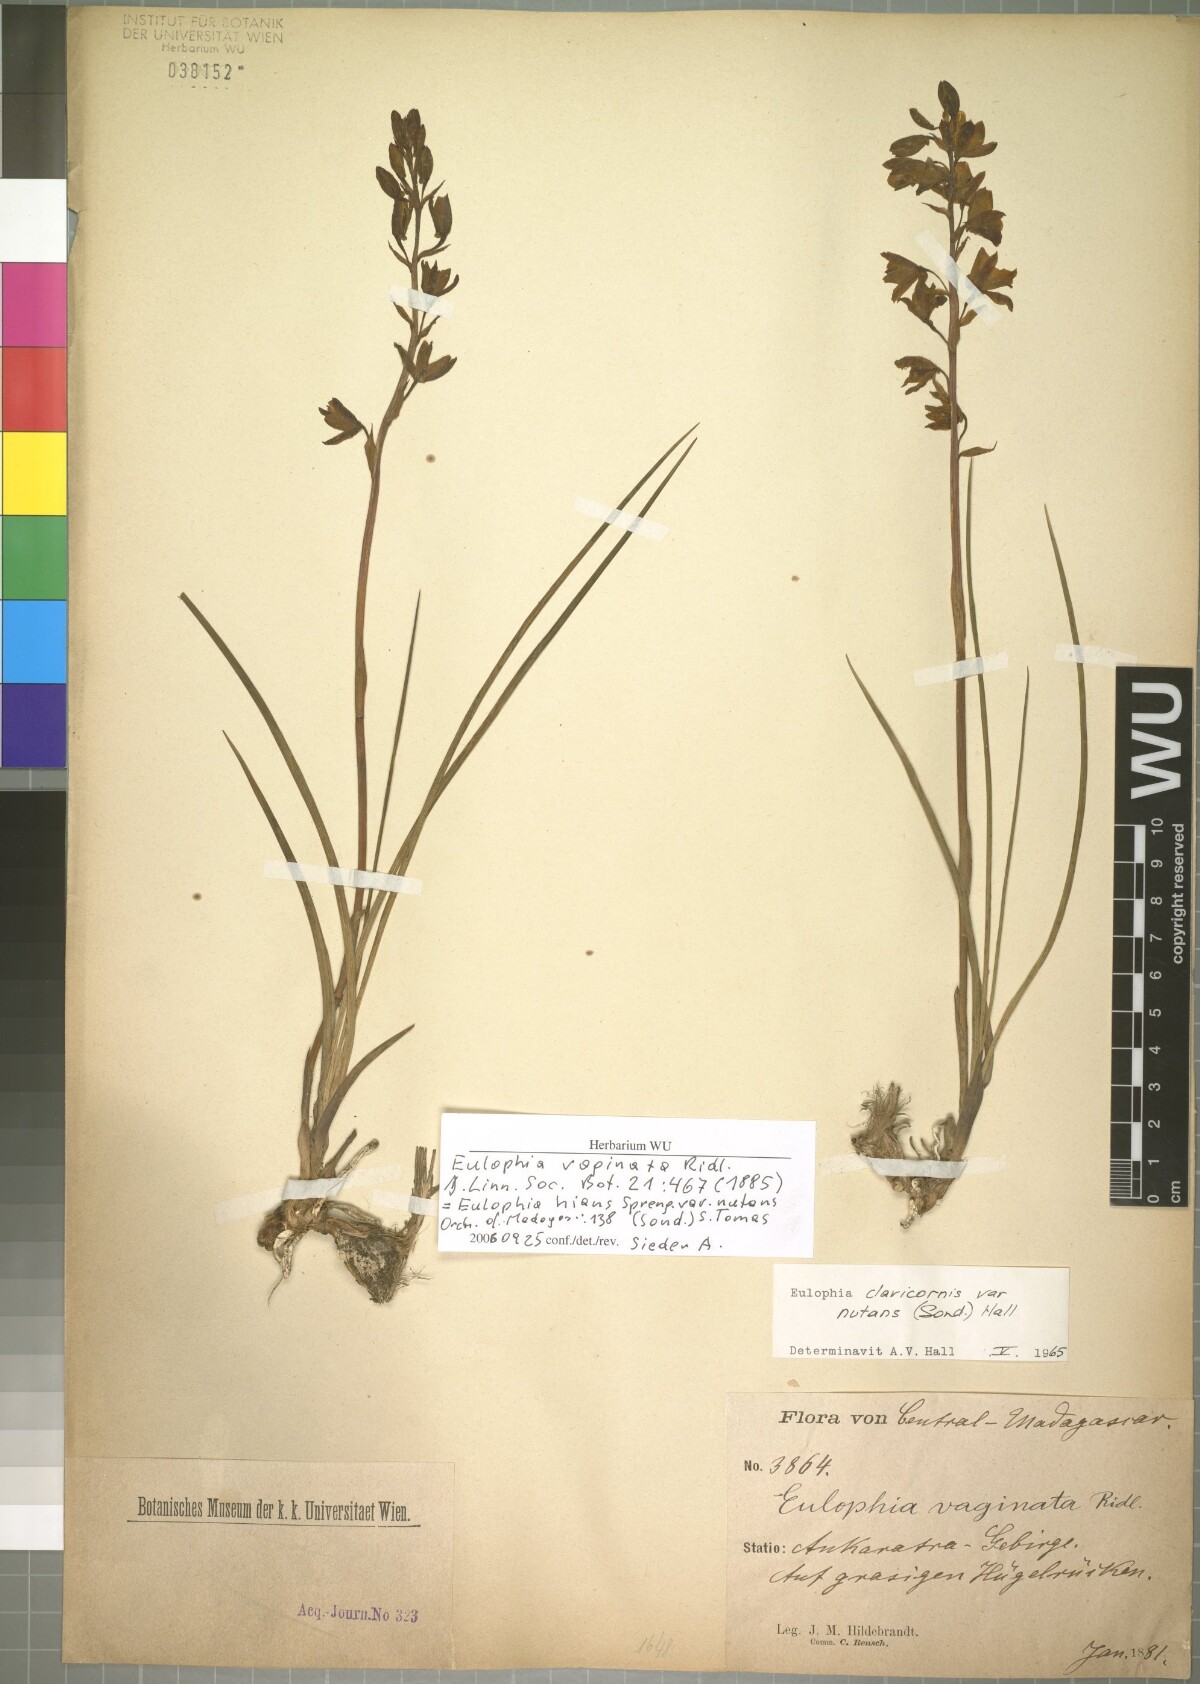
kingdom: Plantae
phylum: Tracheophyta
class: Liliopsida
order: Asparagales
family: Orchidaceae
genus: Eulophia
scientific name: Eulophia hians
